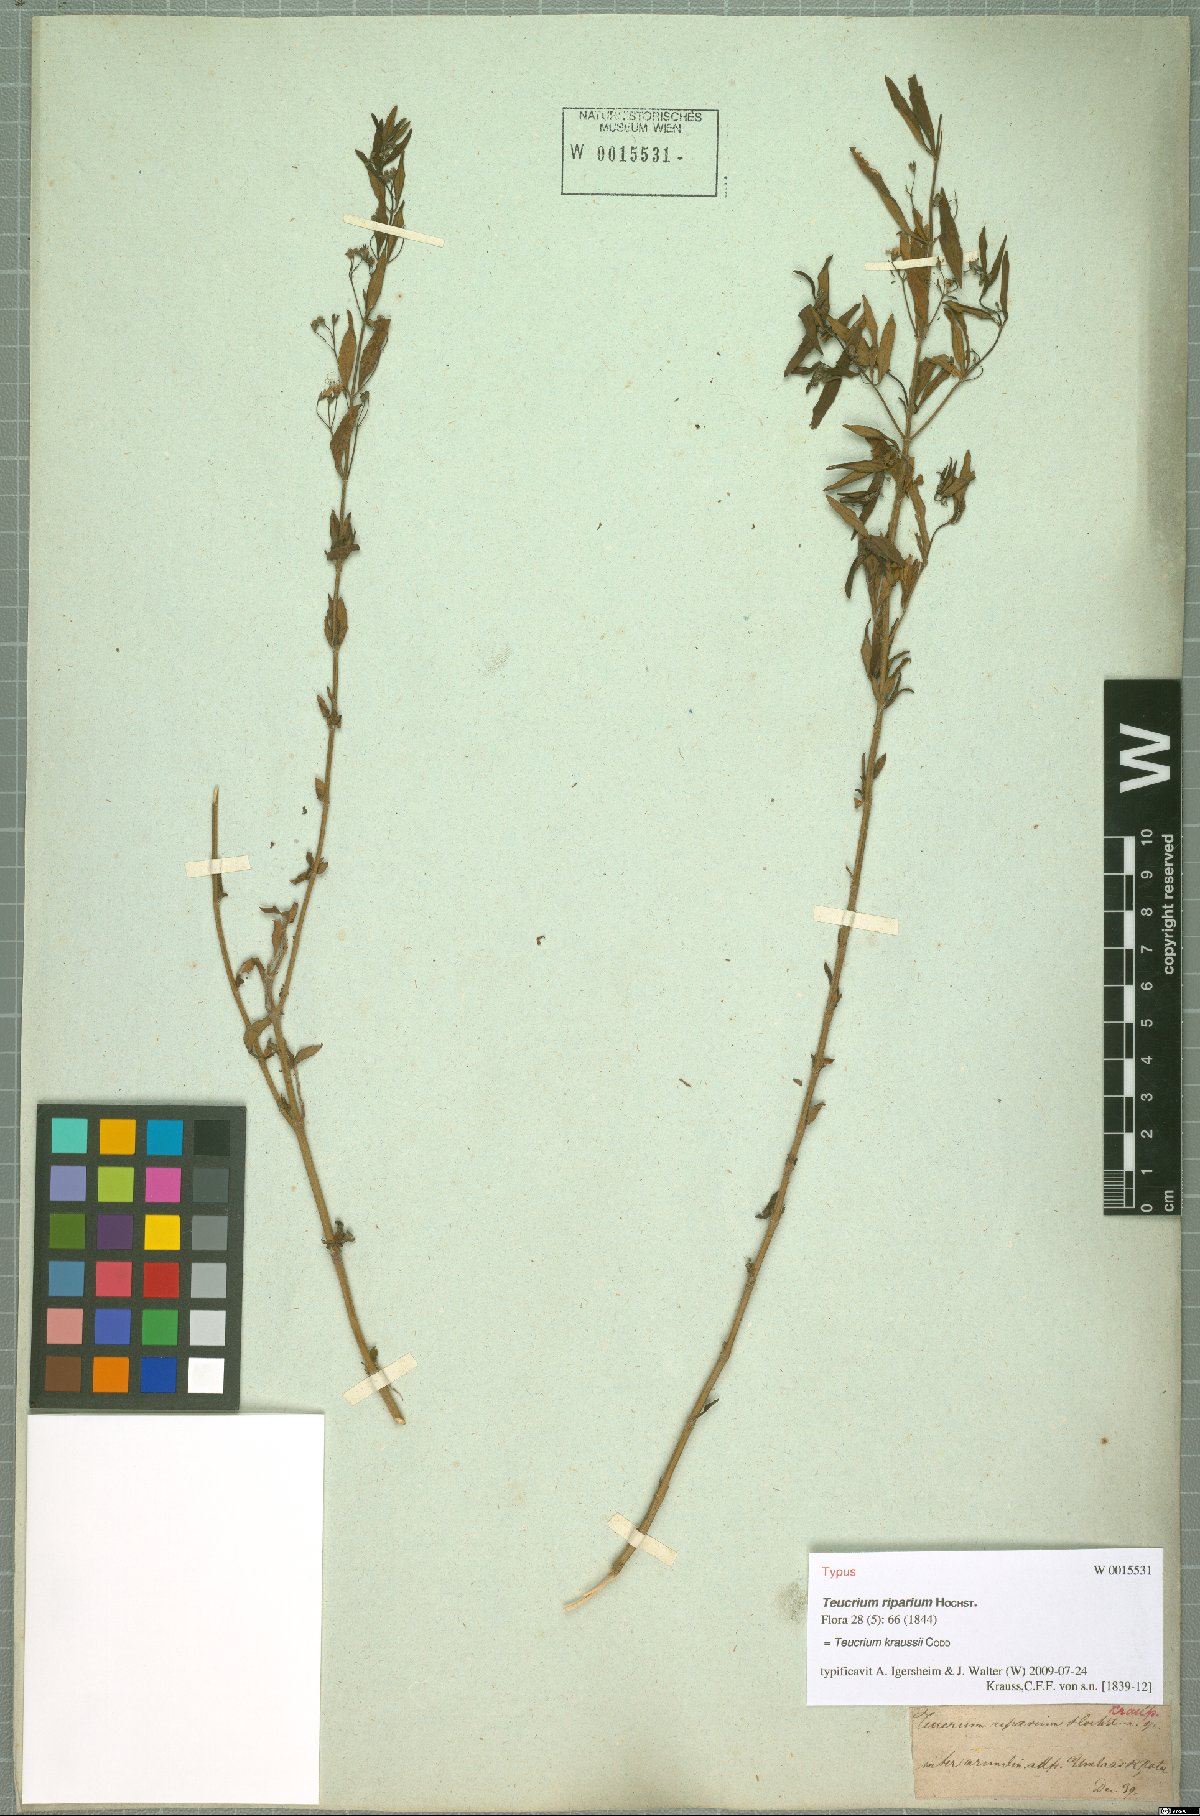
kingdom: Plantae
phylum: Tracheophyta
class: Magnoliopsida
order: Lamiales
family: Lamiaceae
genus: Teucrium
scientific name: Teucrium kraussii
